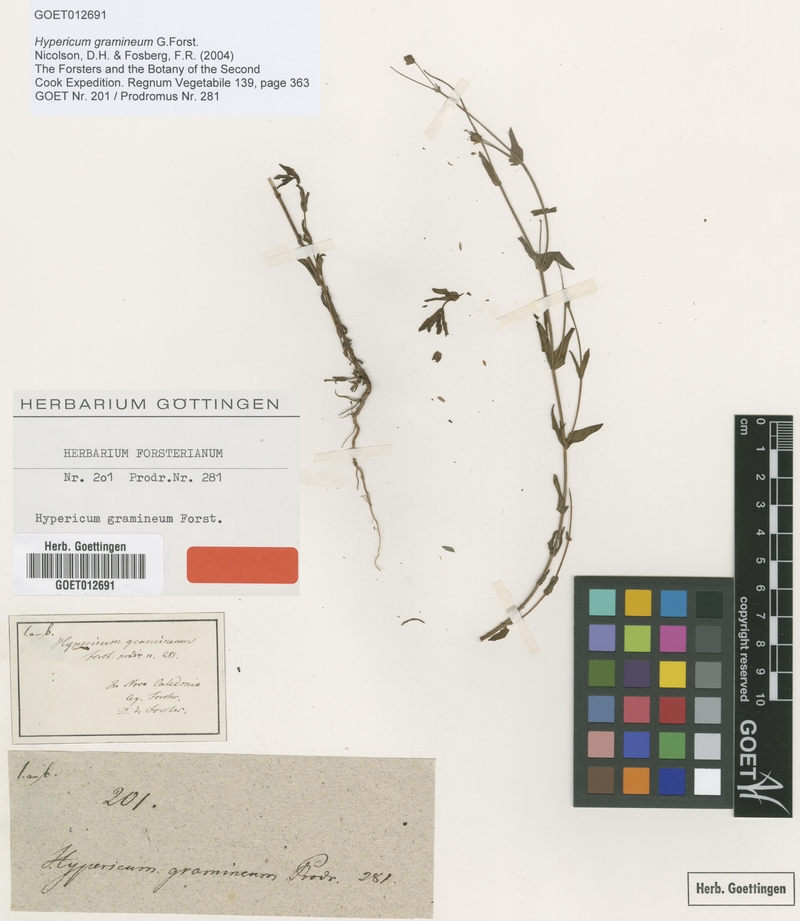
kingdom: Plantae
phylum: Tracheophyta
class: Magnoliopsida
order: Malpighiales
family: Hypericaceae
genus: Hypericum
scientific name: Hypericum gramineum
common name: Grassy st. johnswort
